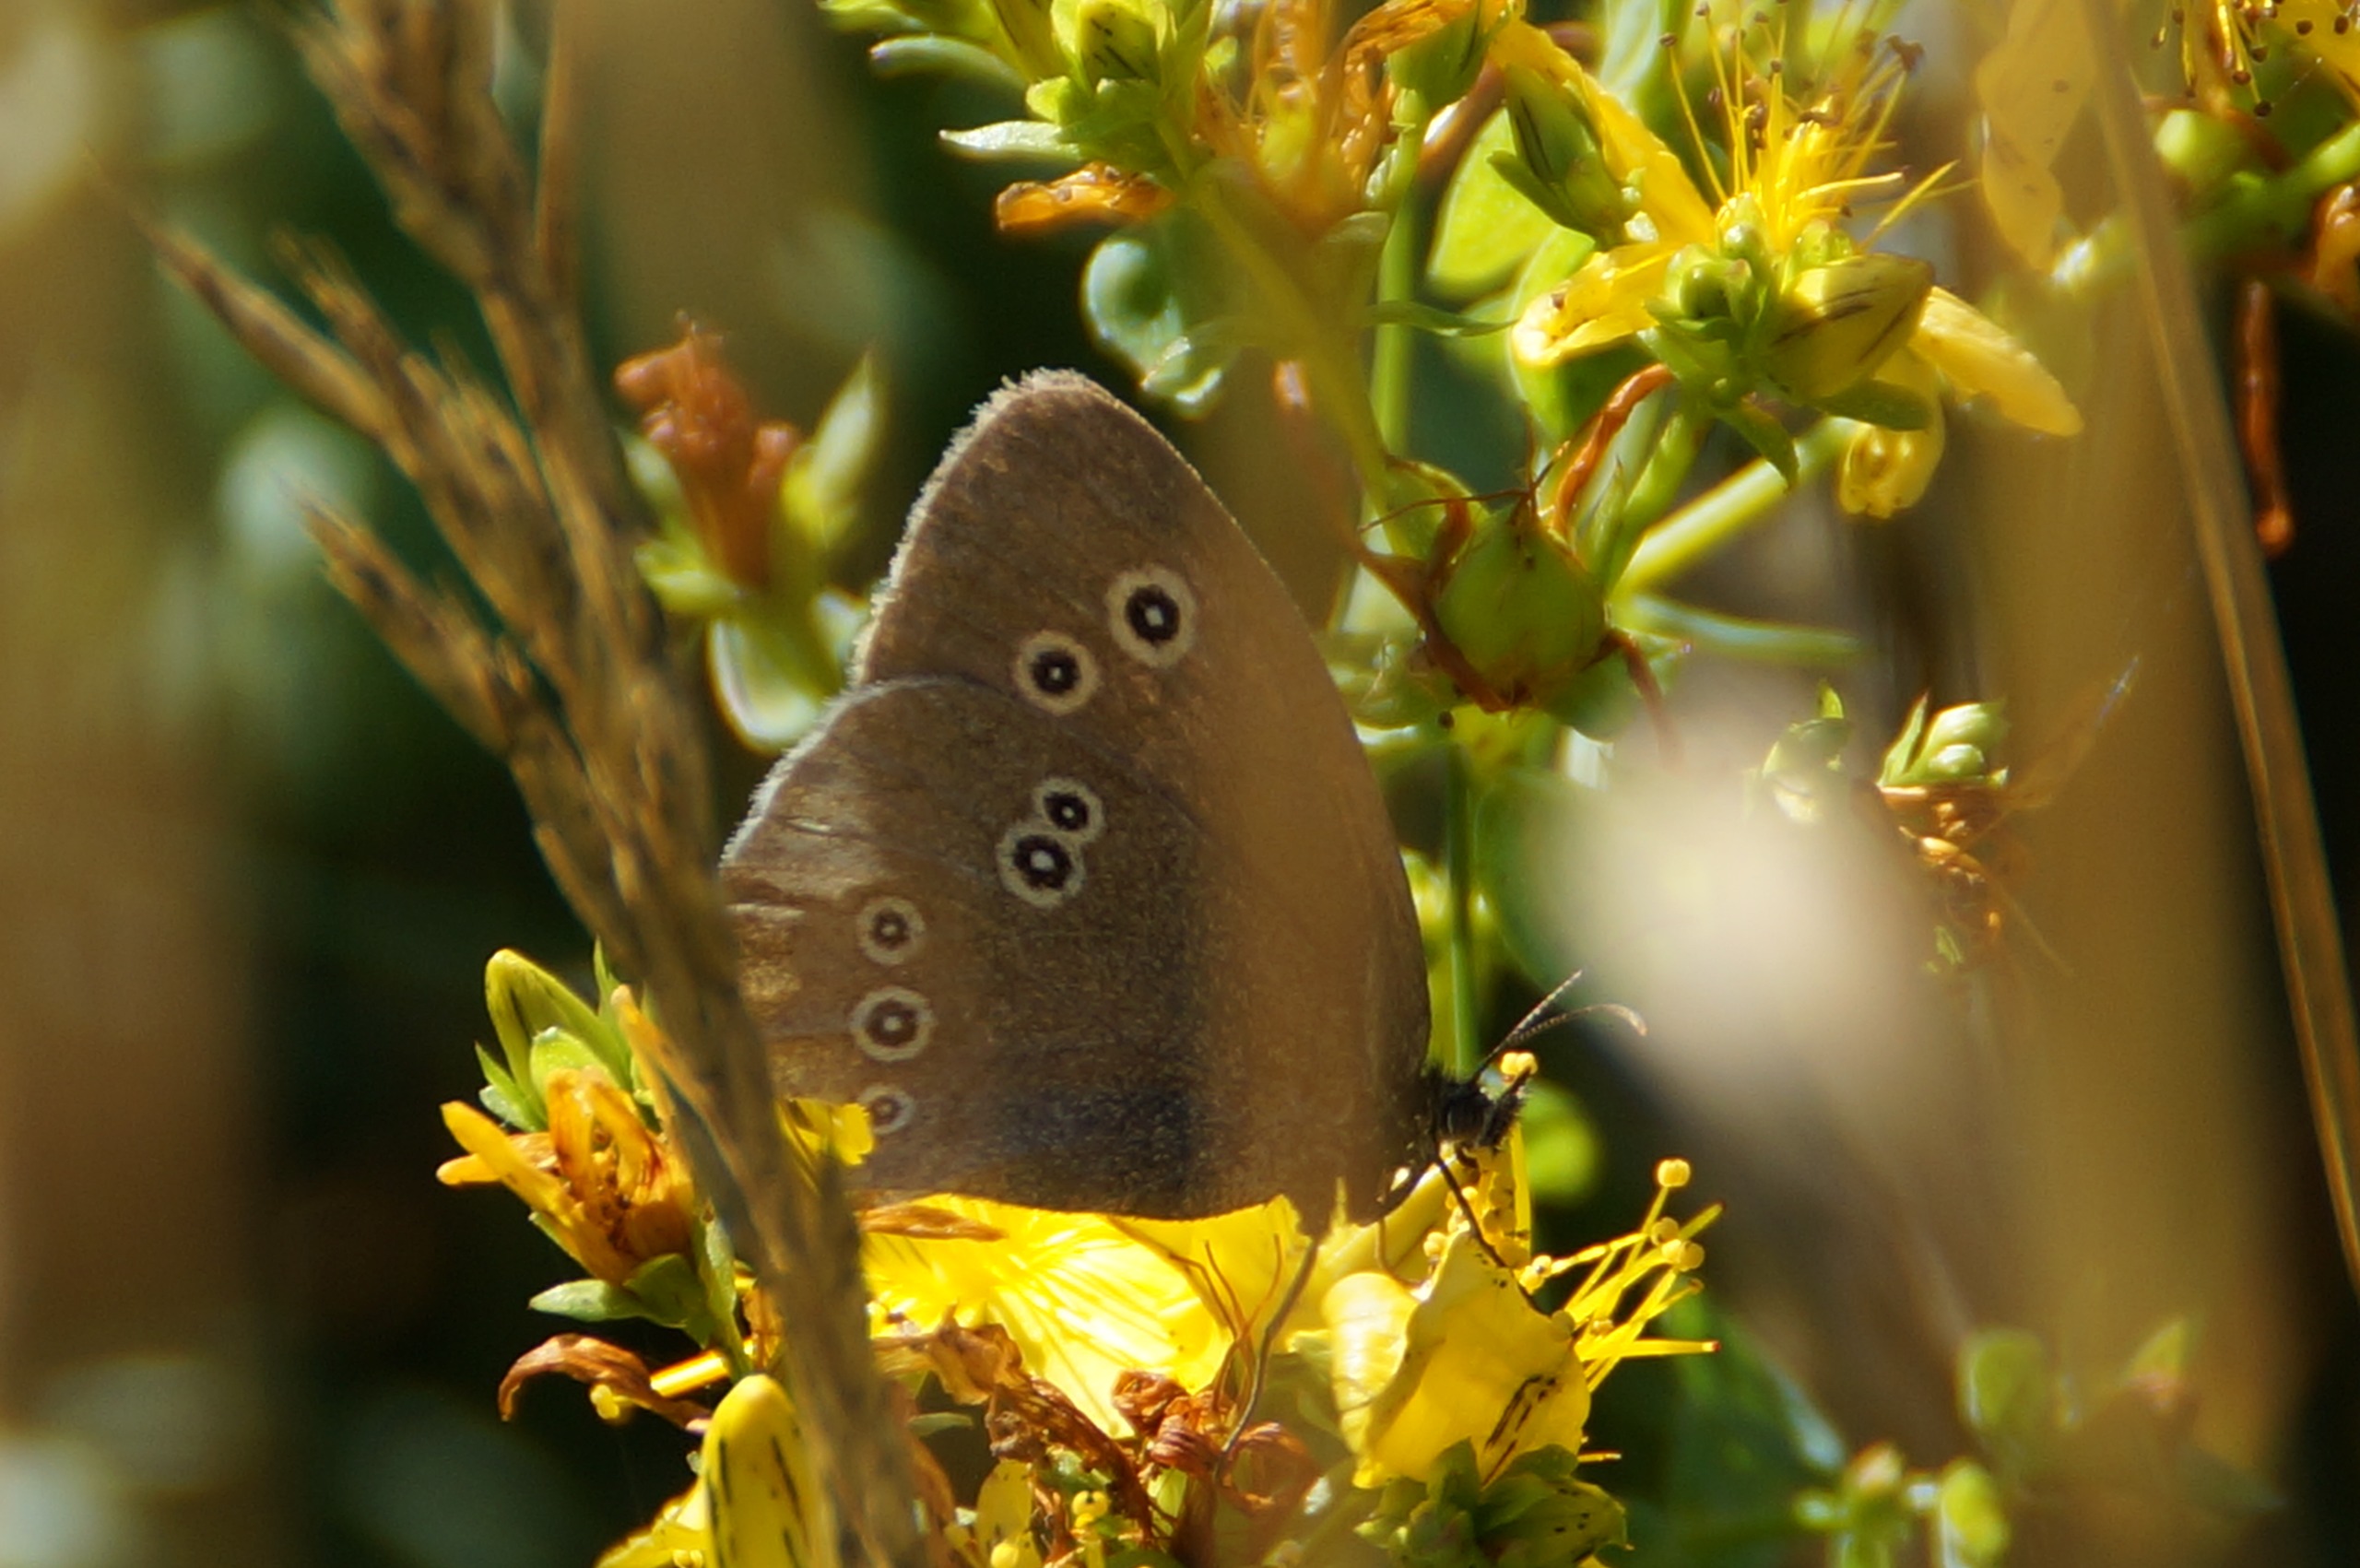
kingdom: Animalia
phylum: Arthropoda
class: Insecta
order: Lepidoptera
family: Nymphalidae
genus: Aphantopus
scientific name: Aphantopus hyperantus
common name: Engrandøje
